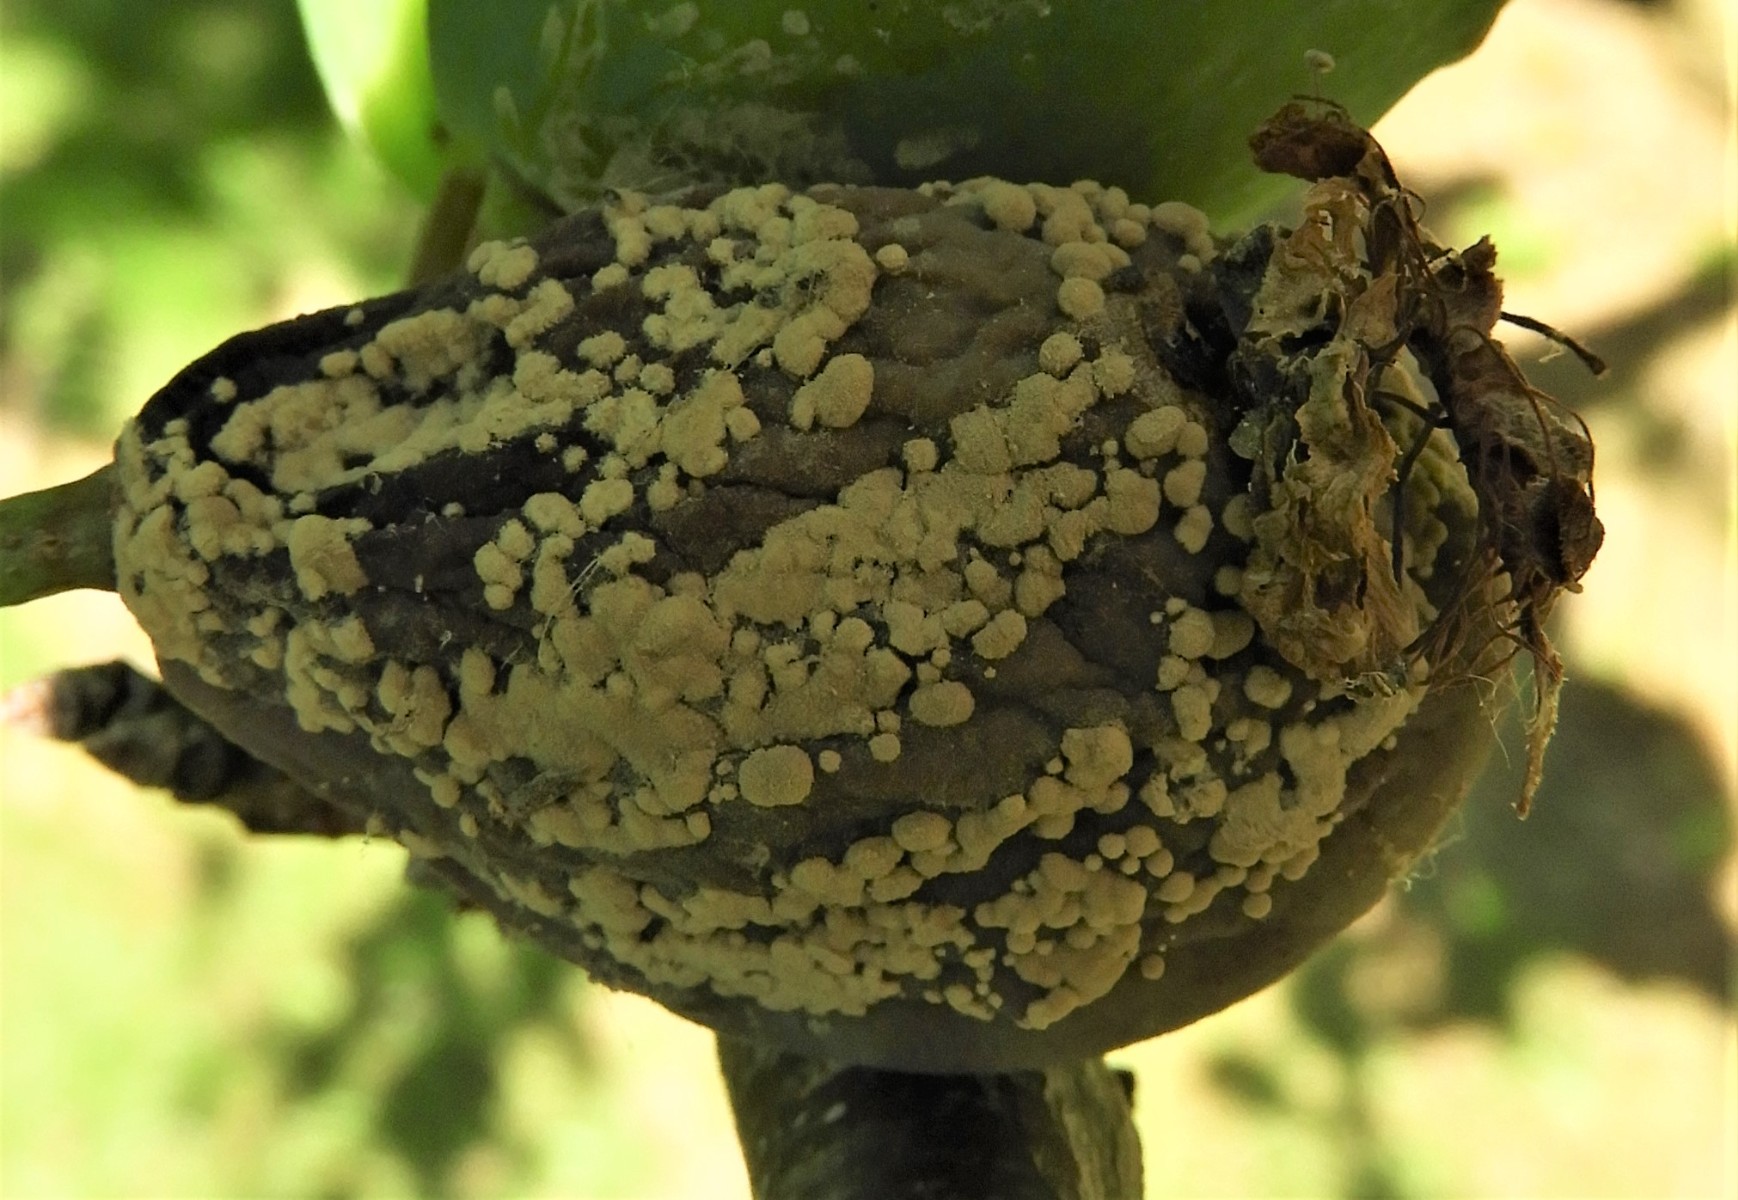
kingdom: Fungi
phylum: Ascomycota
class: Leotiomycetes
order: Helotiales
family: Sclerotiniaceae
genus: Monilinia
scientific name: Monilinia laxa
